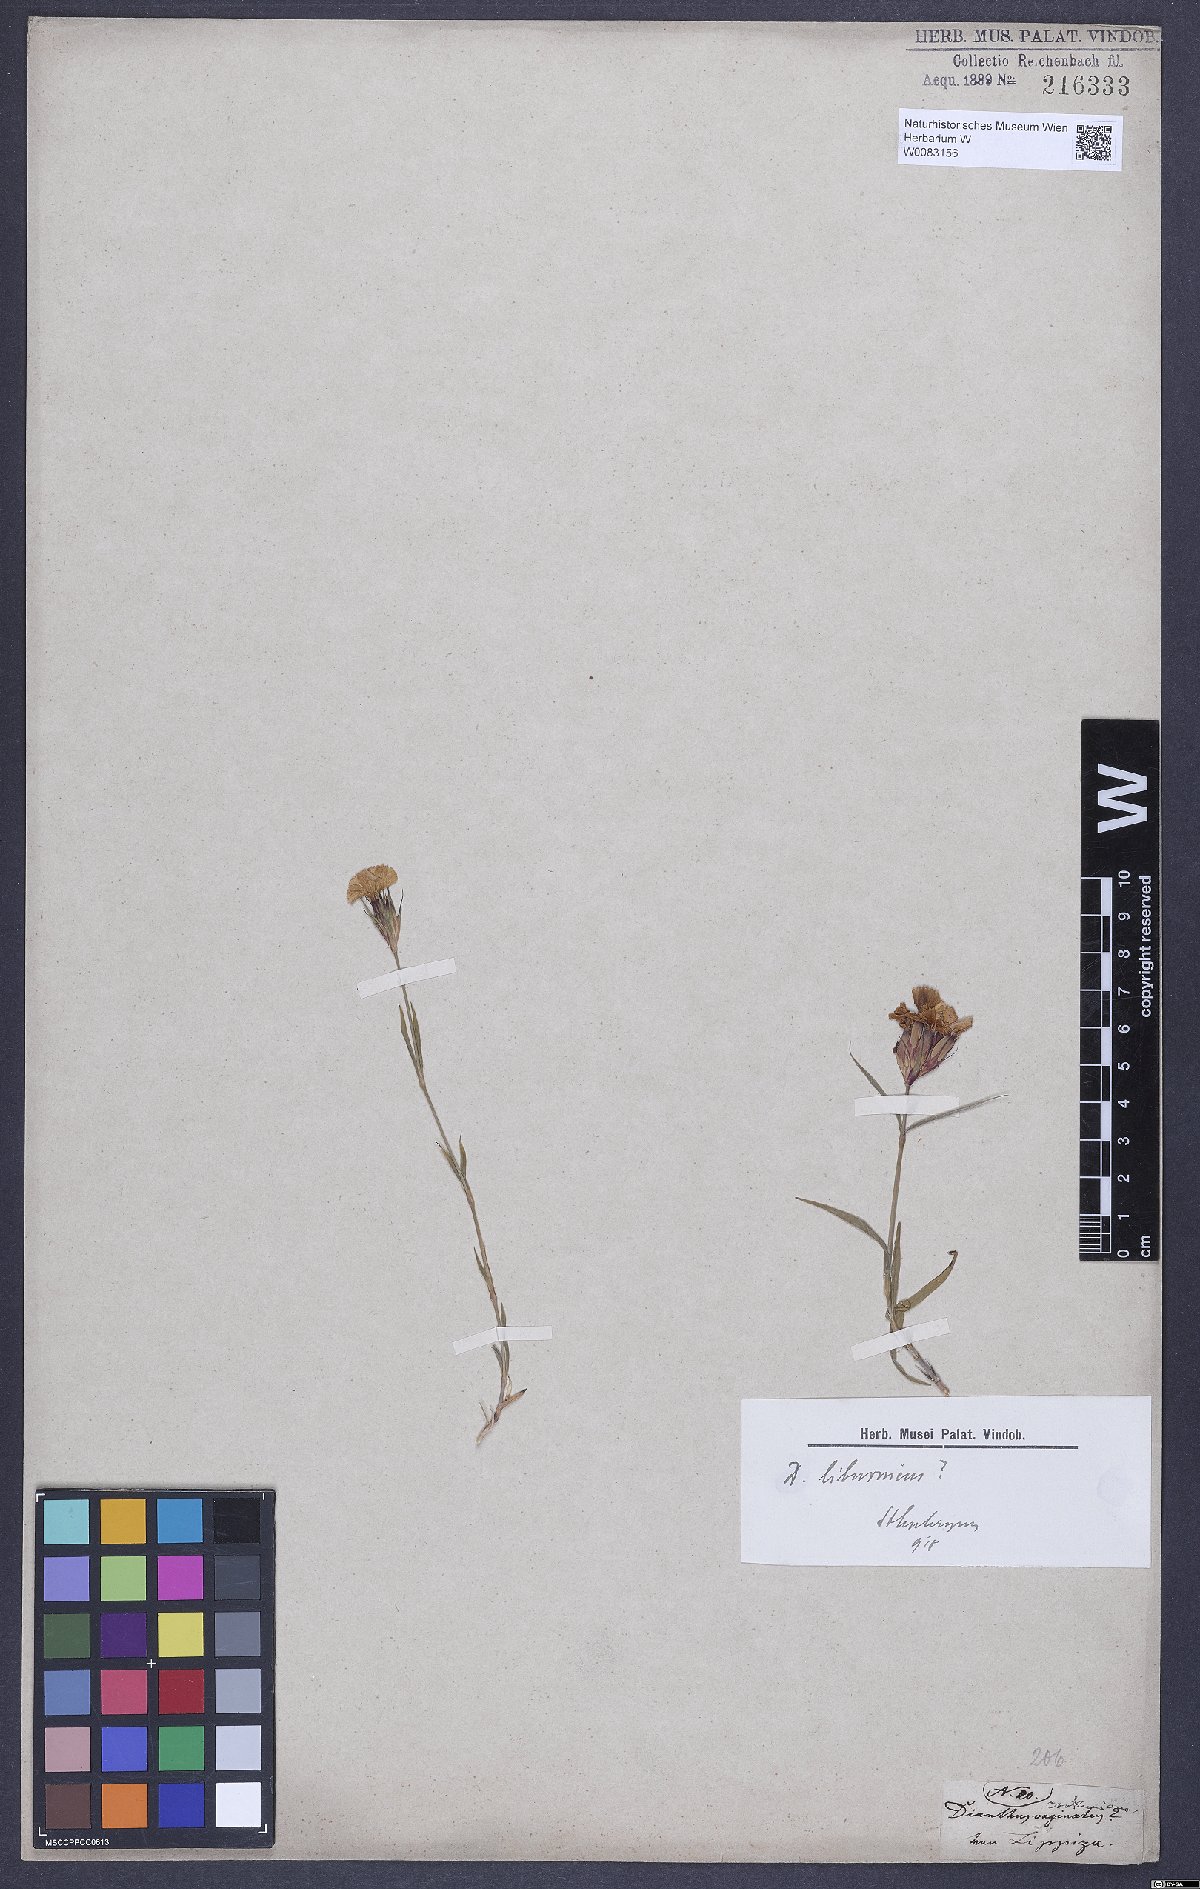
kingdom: Plantae
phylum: Tracheophyta
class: Magnoliopsida
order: Caryophyllales
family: Caryophyllaceae
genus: Dianthus
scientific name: Dianthus balbisii
